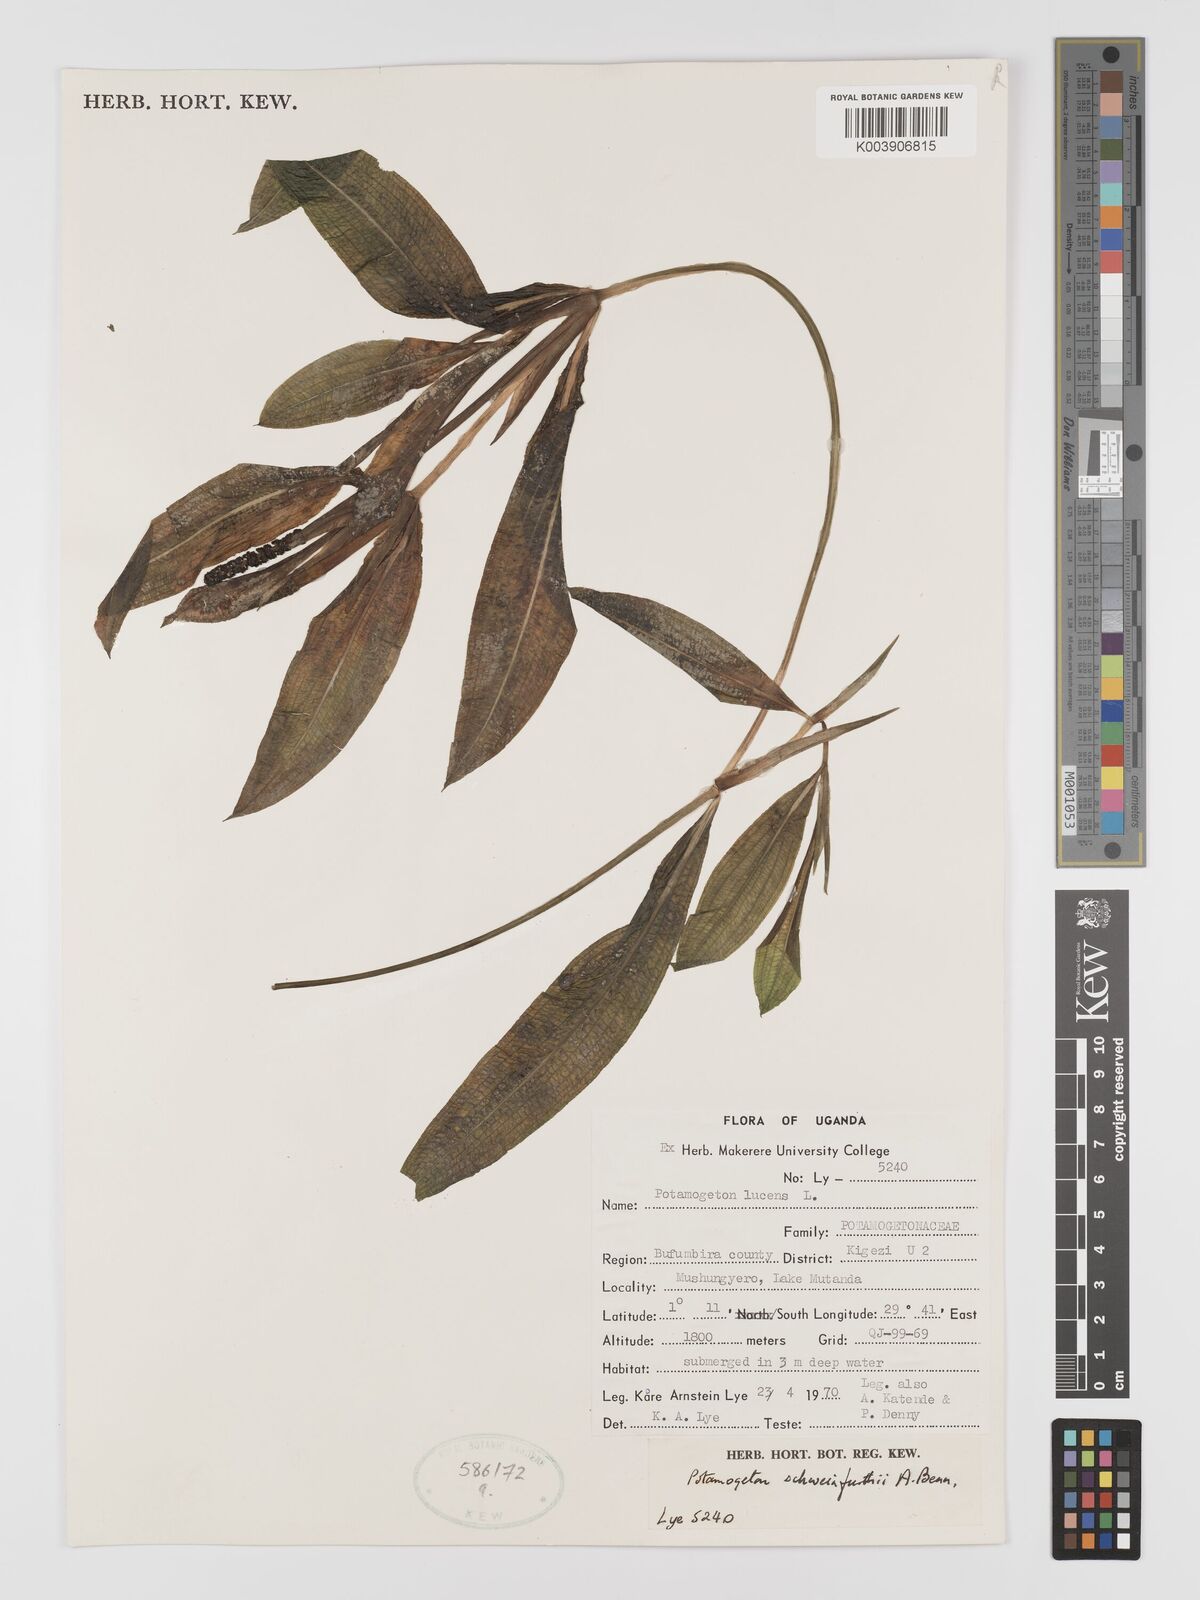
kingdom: Plantae
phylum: Tracheophyta
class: Liliopsida
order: Alismatales
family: Potamogetonaceae
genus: Potamogeton
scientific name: Potamogeton schweinfurthii
